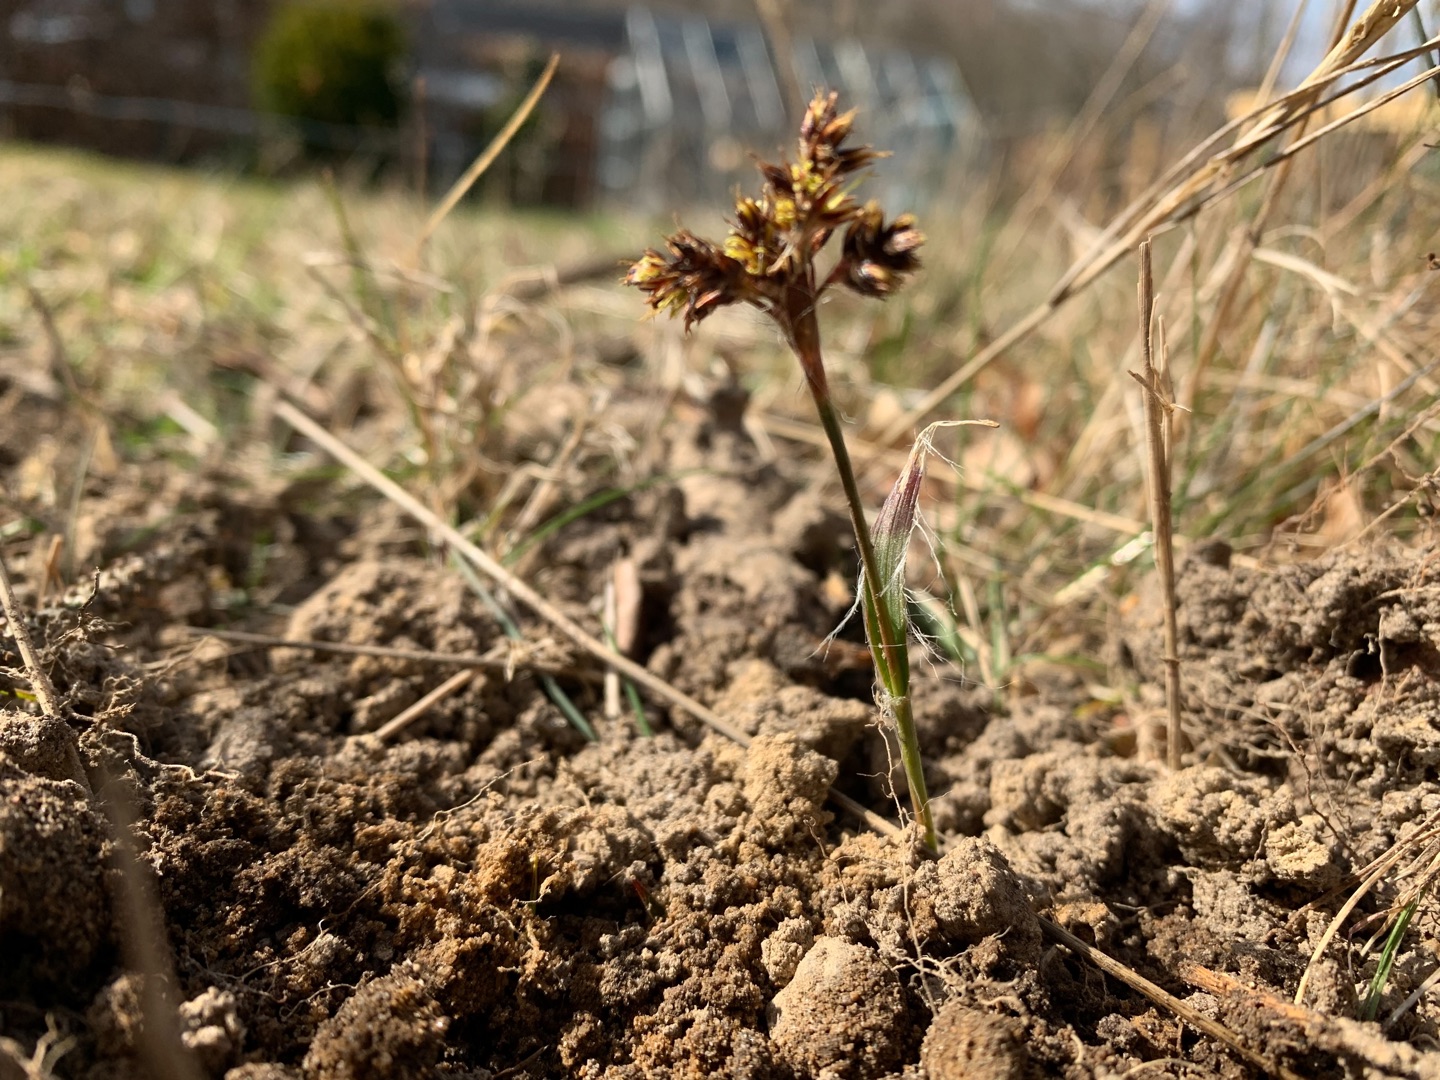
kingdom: Plantae
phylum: Tracheophyta
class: Liliopsida
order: Poales
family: Juncaceae
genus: Luzula
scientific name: Luzula campestris
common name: Mark-frytle
